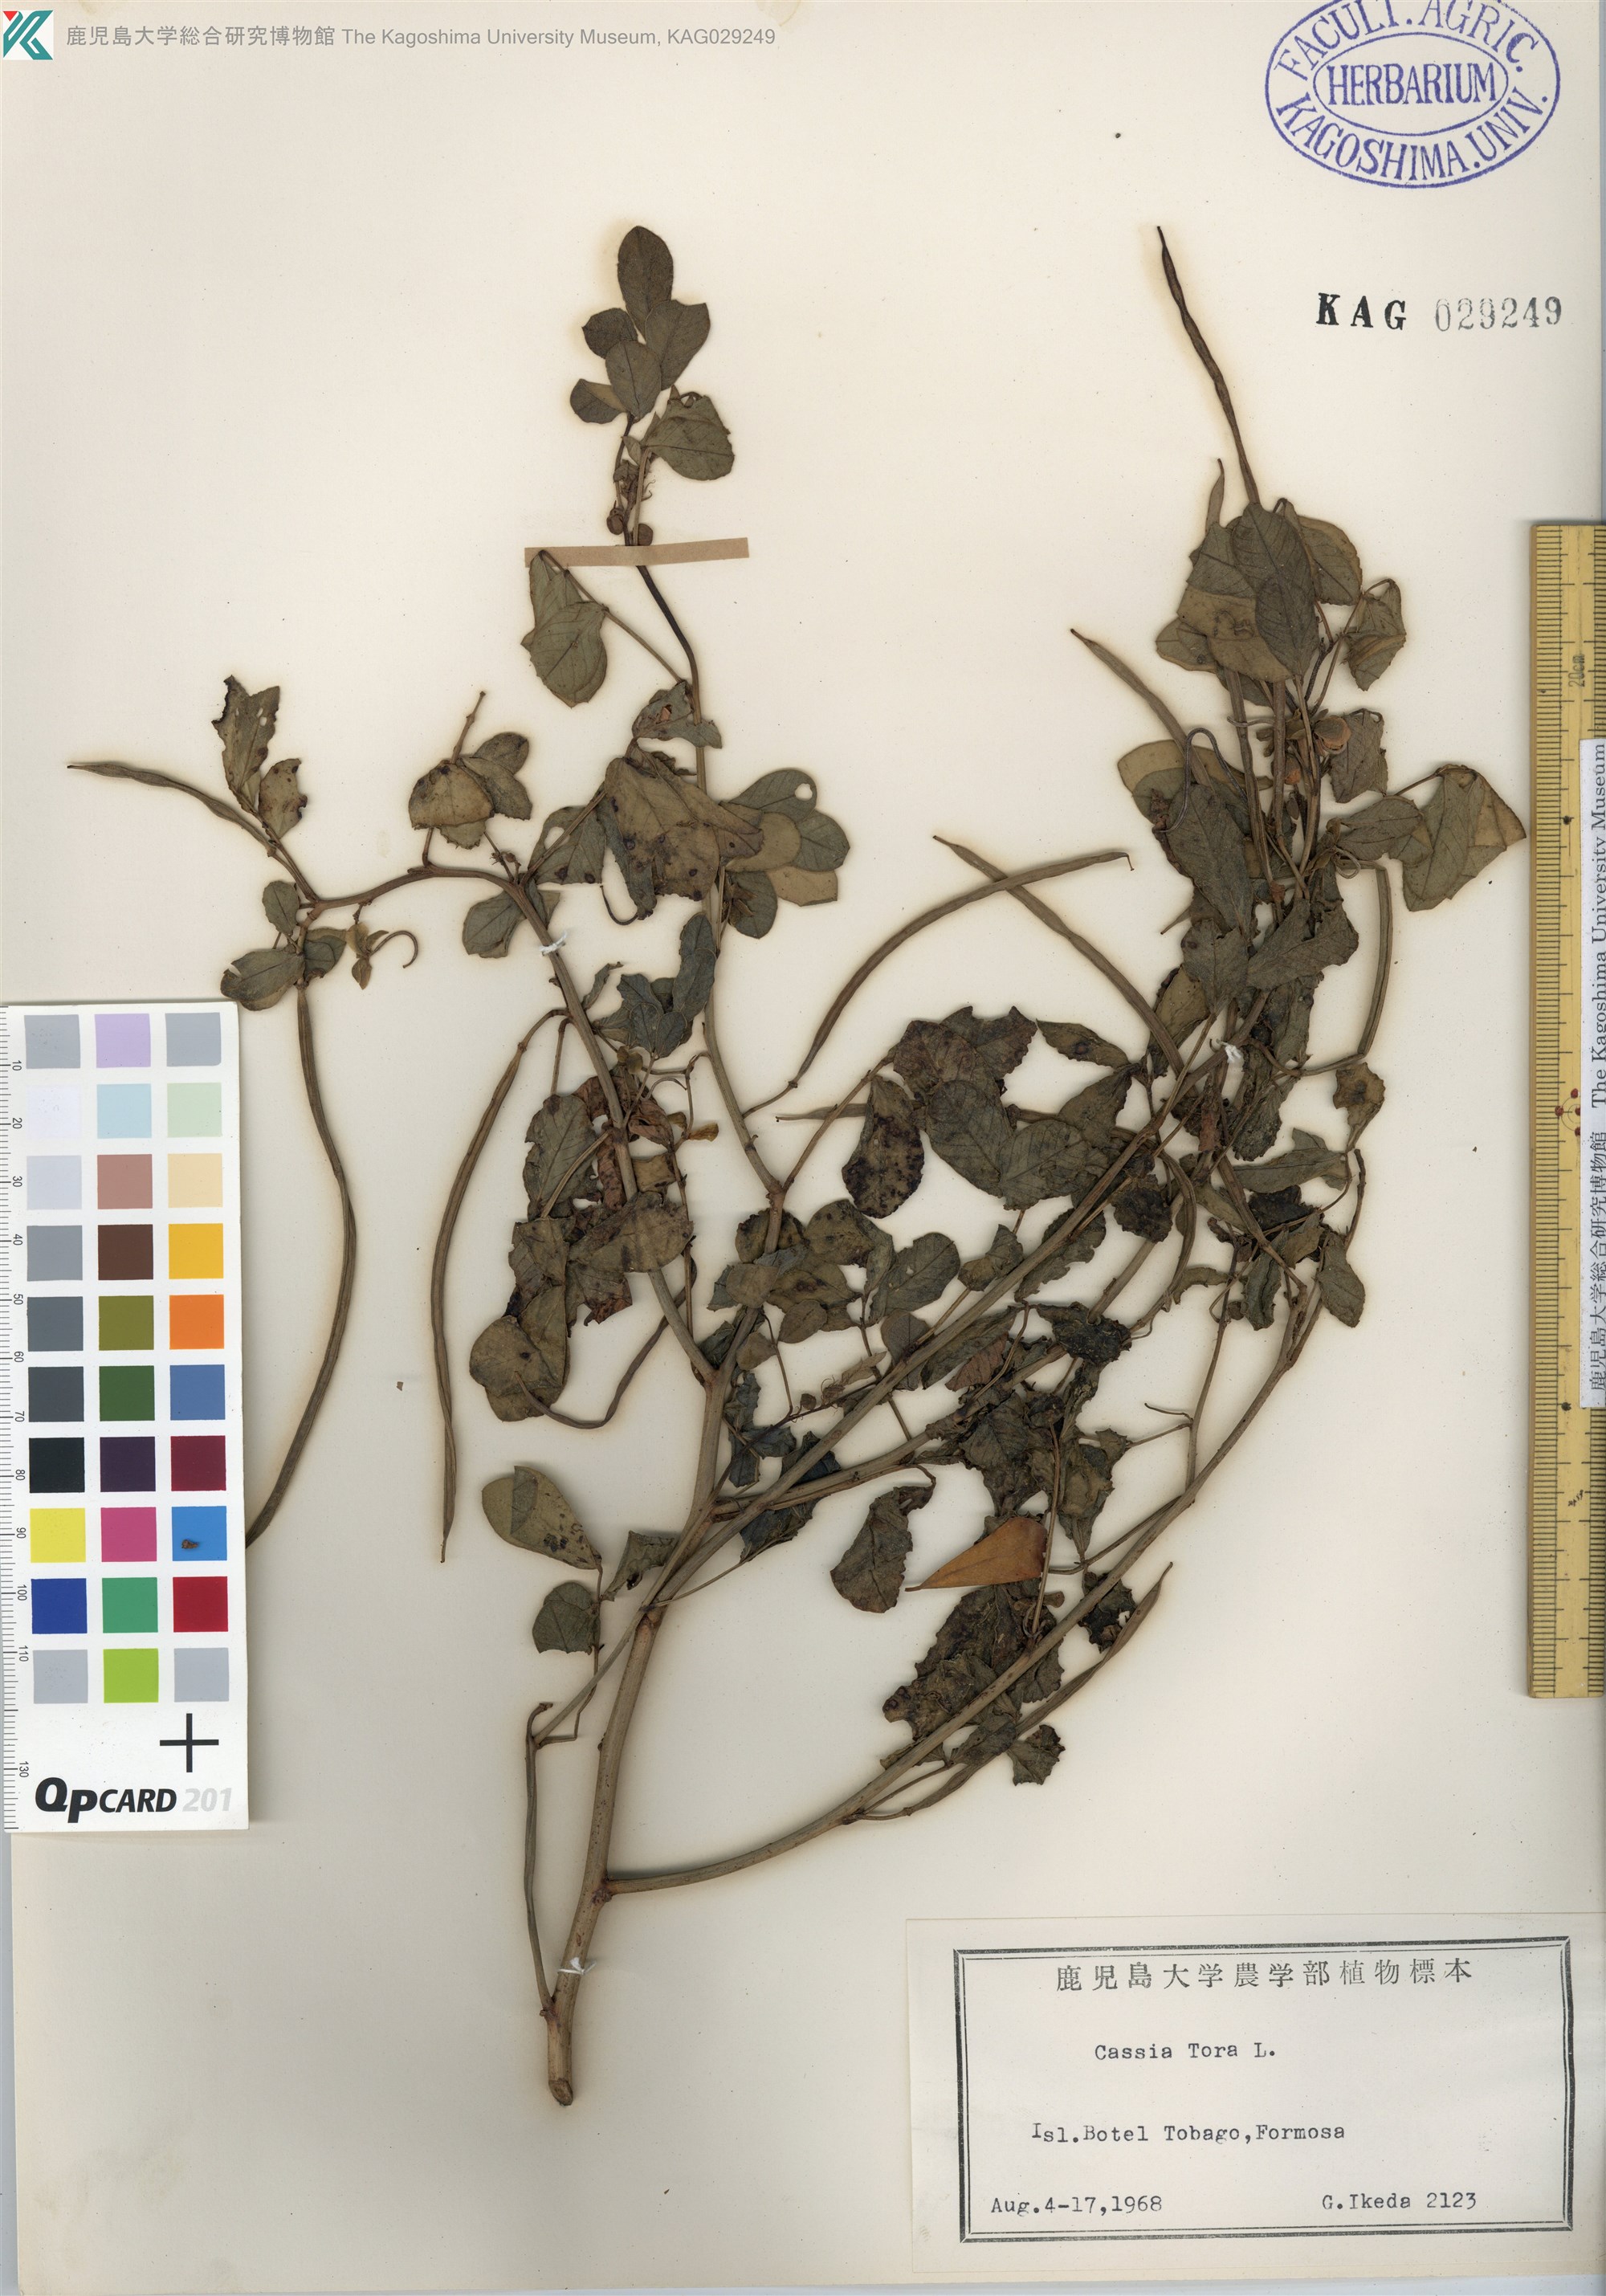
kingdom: Plantae
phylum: Tracheophyta
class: Magnoliopsida
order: Fabales
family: Fabaceae
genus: Senna
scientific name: Senna tora
